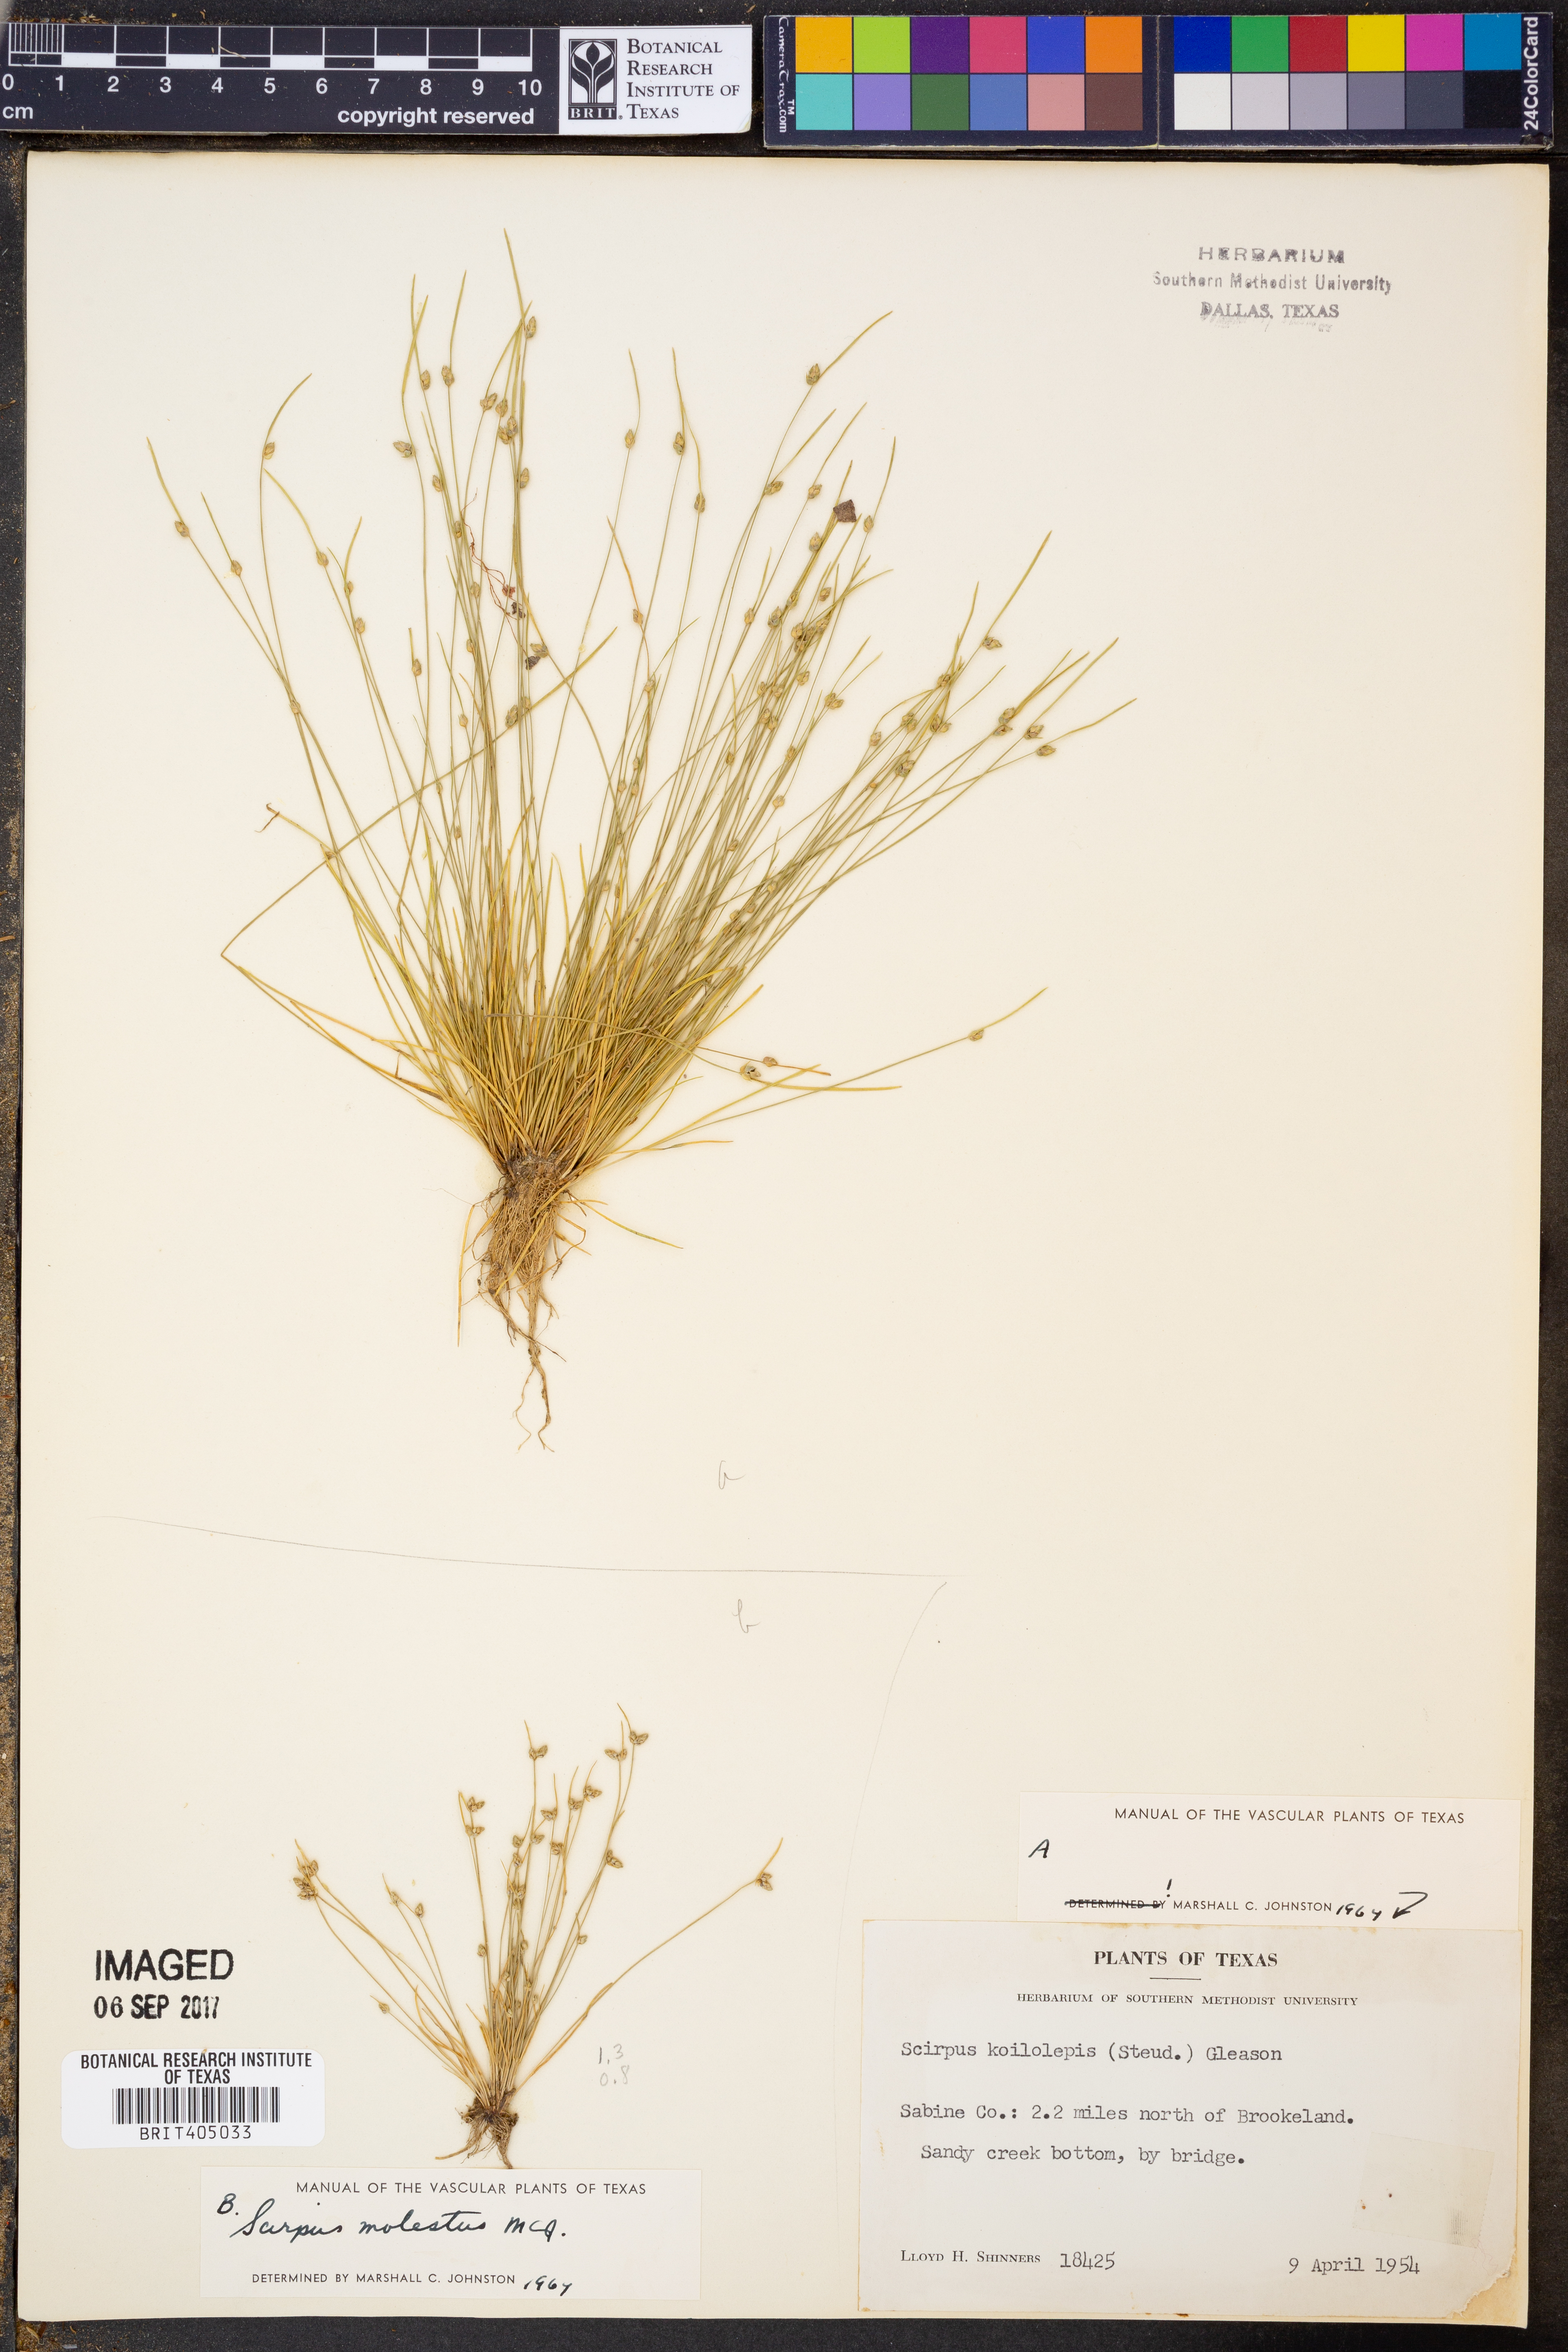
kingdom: Plantae
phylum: Tracheophyta
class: Liliopsida
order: Poales
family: Cyperaceae
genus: Isolepis
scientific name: Isolepis carinata
